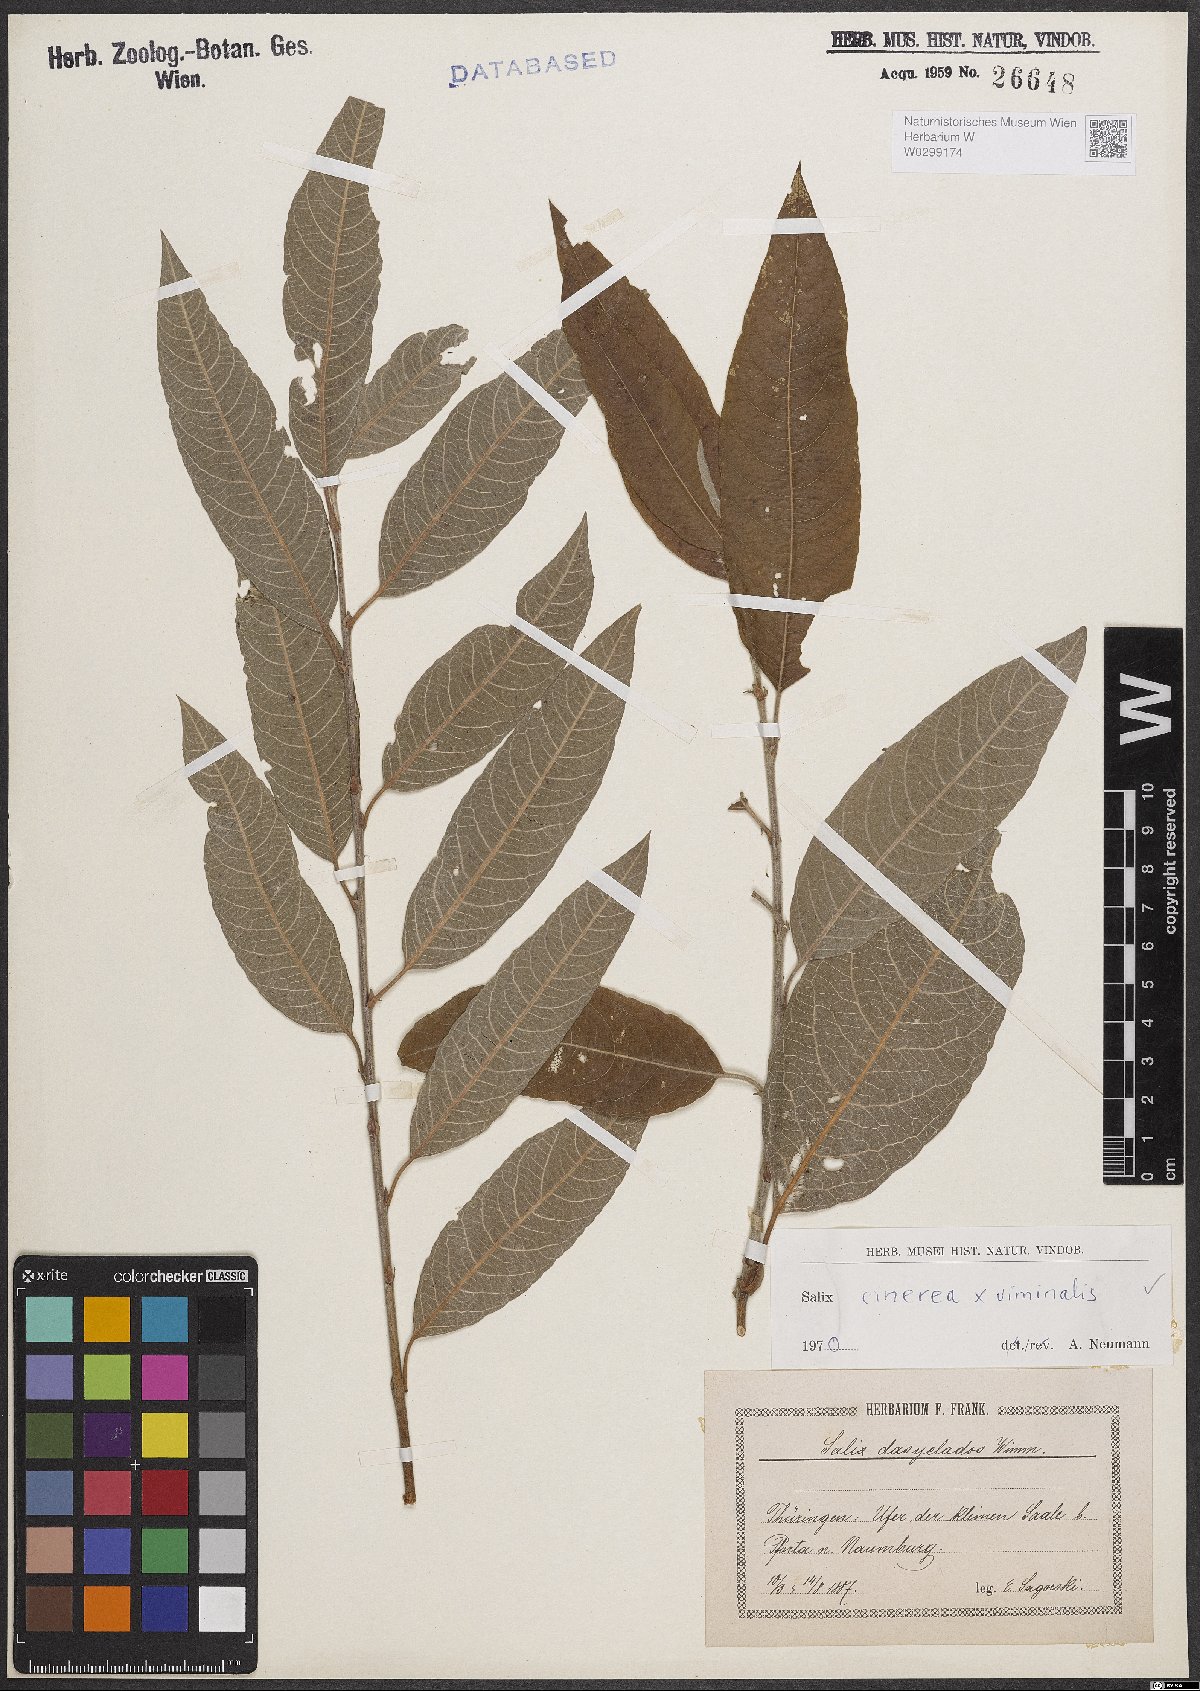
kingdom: Plantae
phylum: Tracheophyta
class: Magnoliopsida
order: Malpighiales
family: Salicaceae
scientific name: Salicaceae
